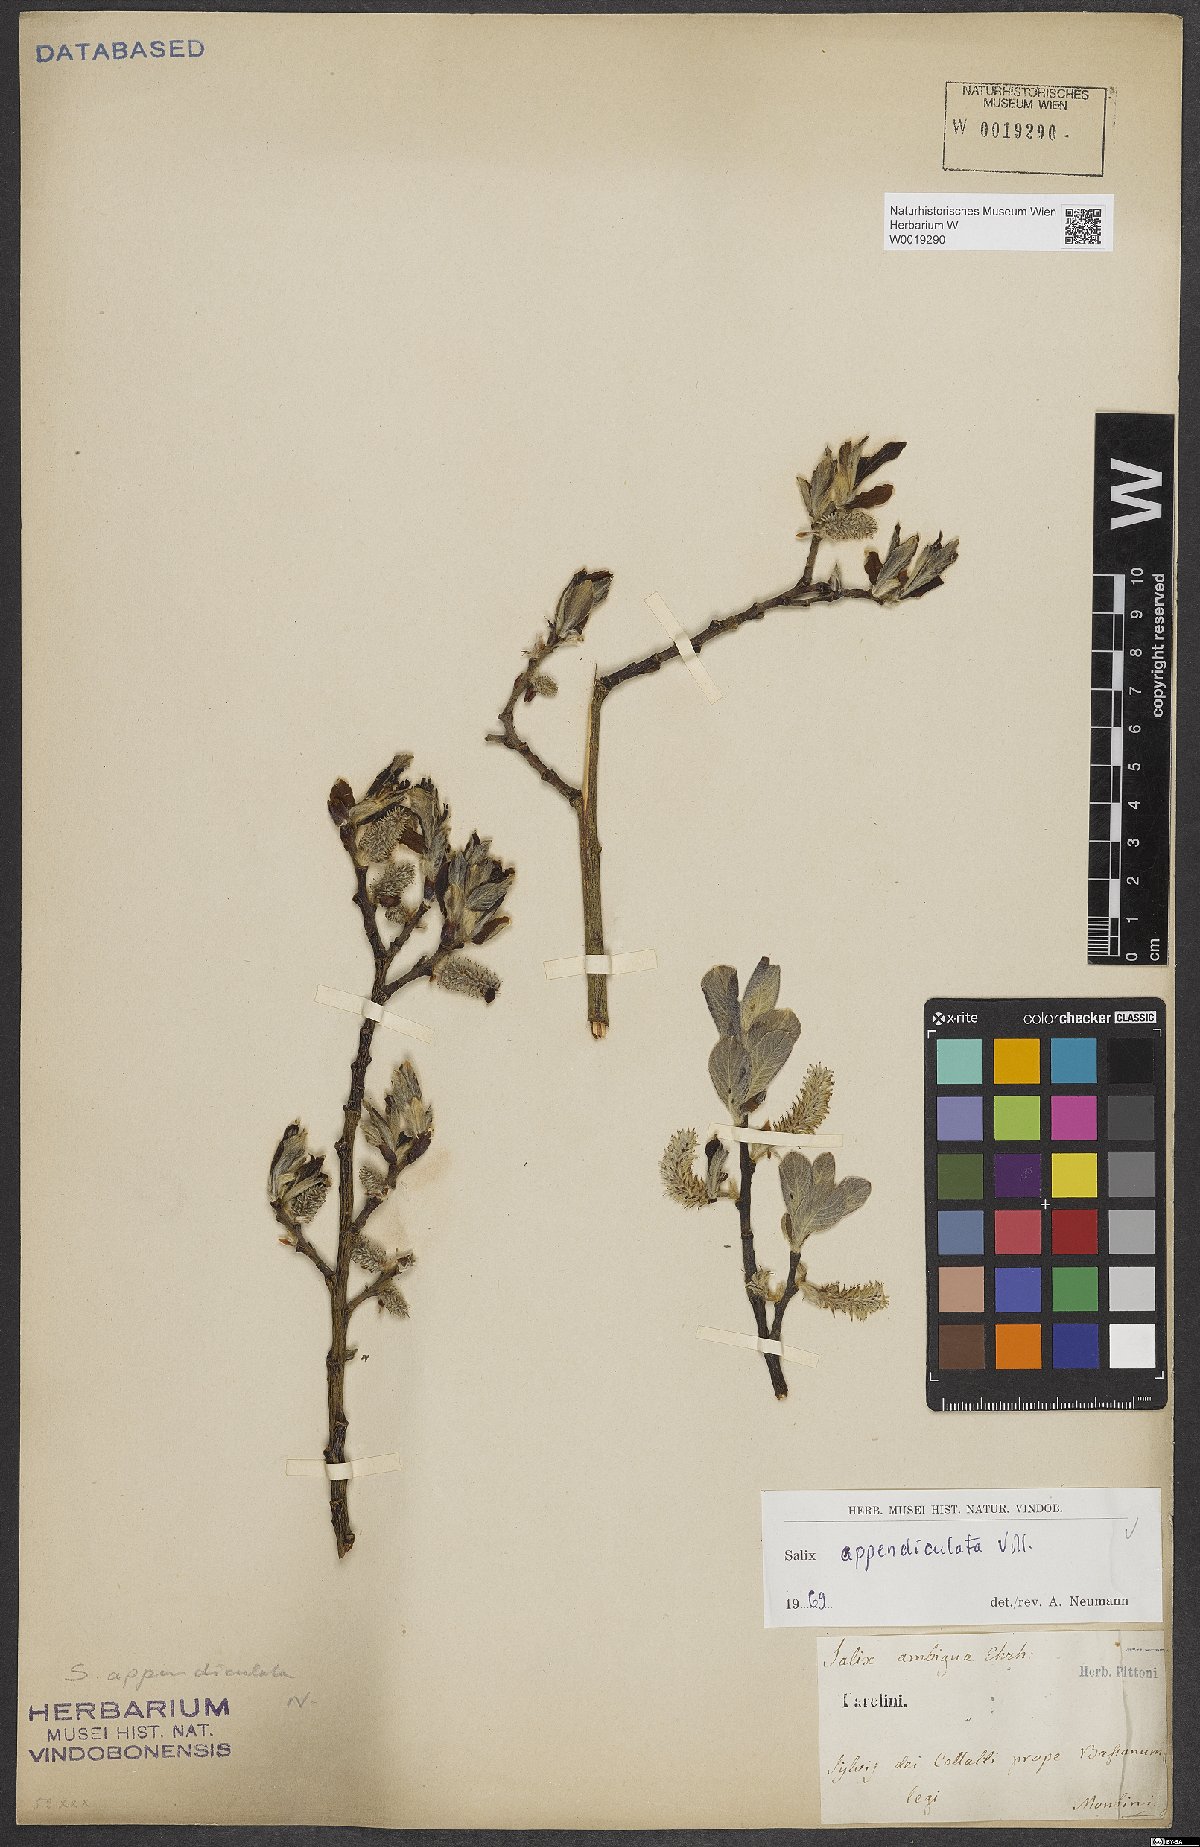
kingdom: Plantae
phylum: Tracheophyta
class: Magnoliopsida
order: Malpighiales
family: Salicaceae
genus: Salix
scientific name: Salix appendiculata
